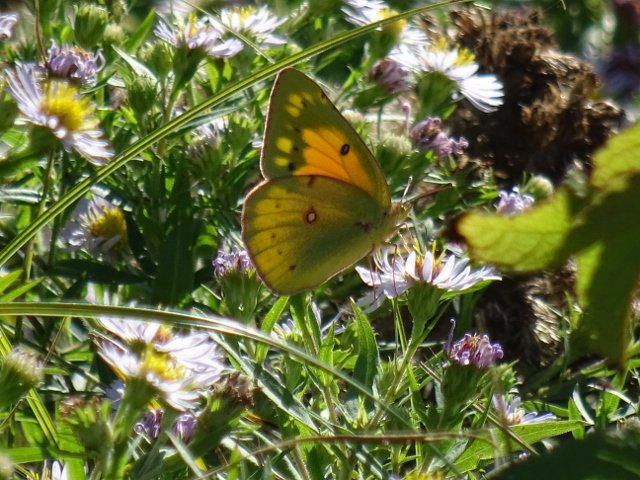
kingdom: Animalia
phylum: Arthropoda
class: Insecta
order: Lepidoptera
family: Pieridae
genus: Colias
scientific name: Colias eurytheme
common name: Orange Sulphur
